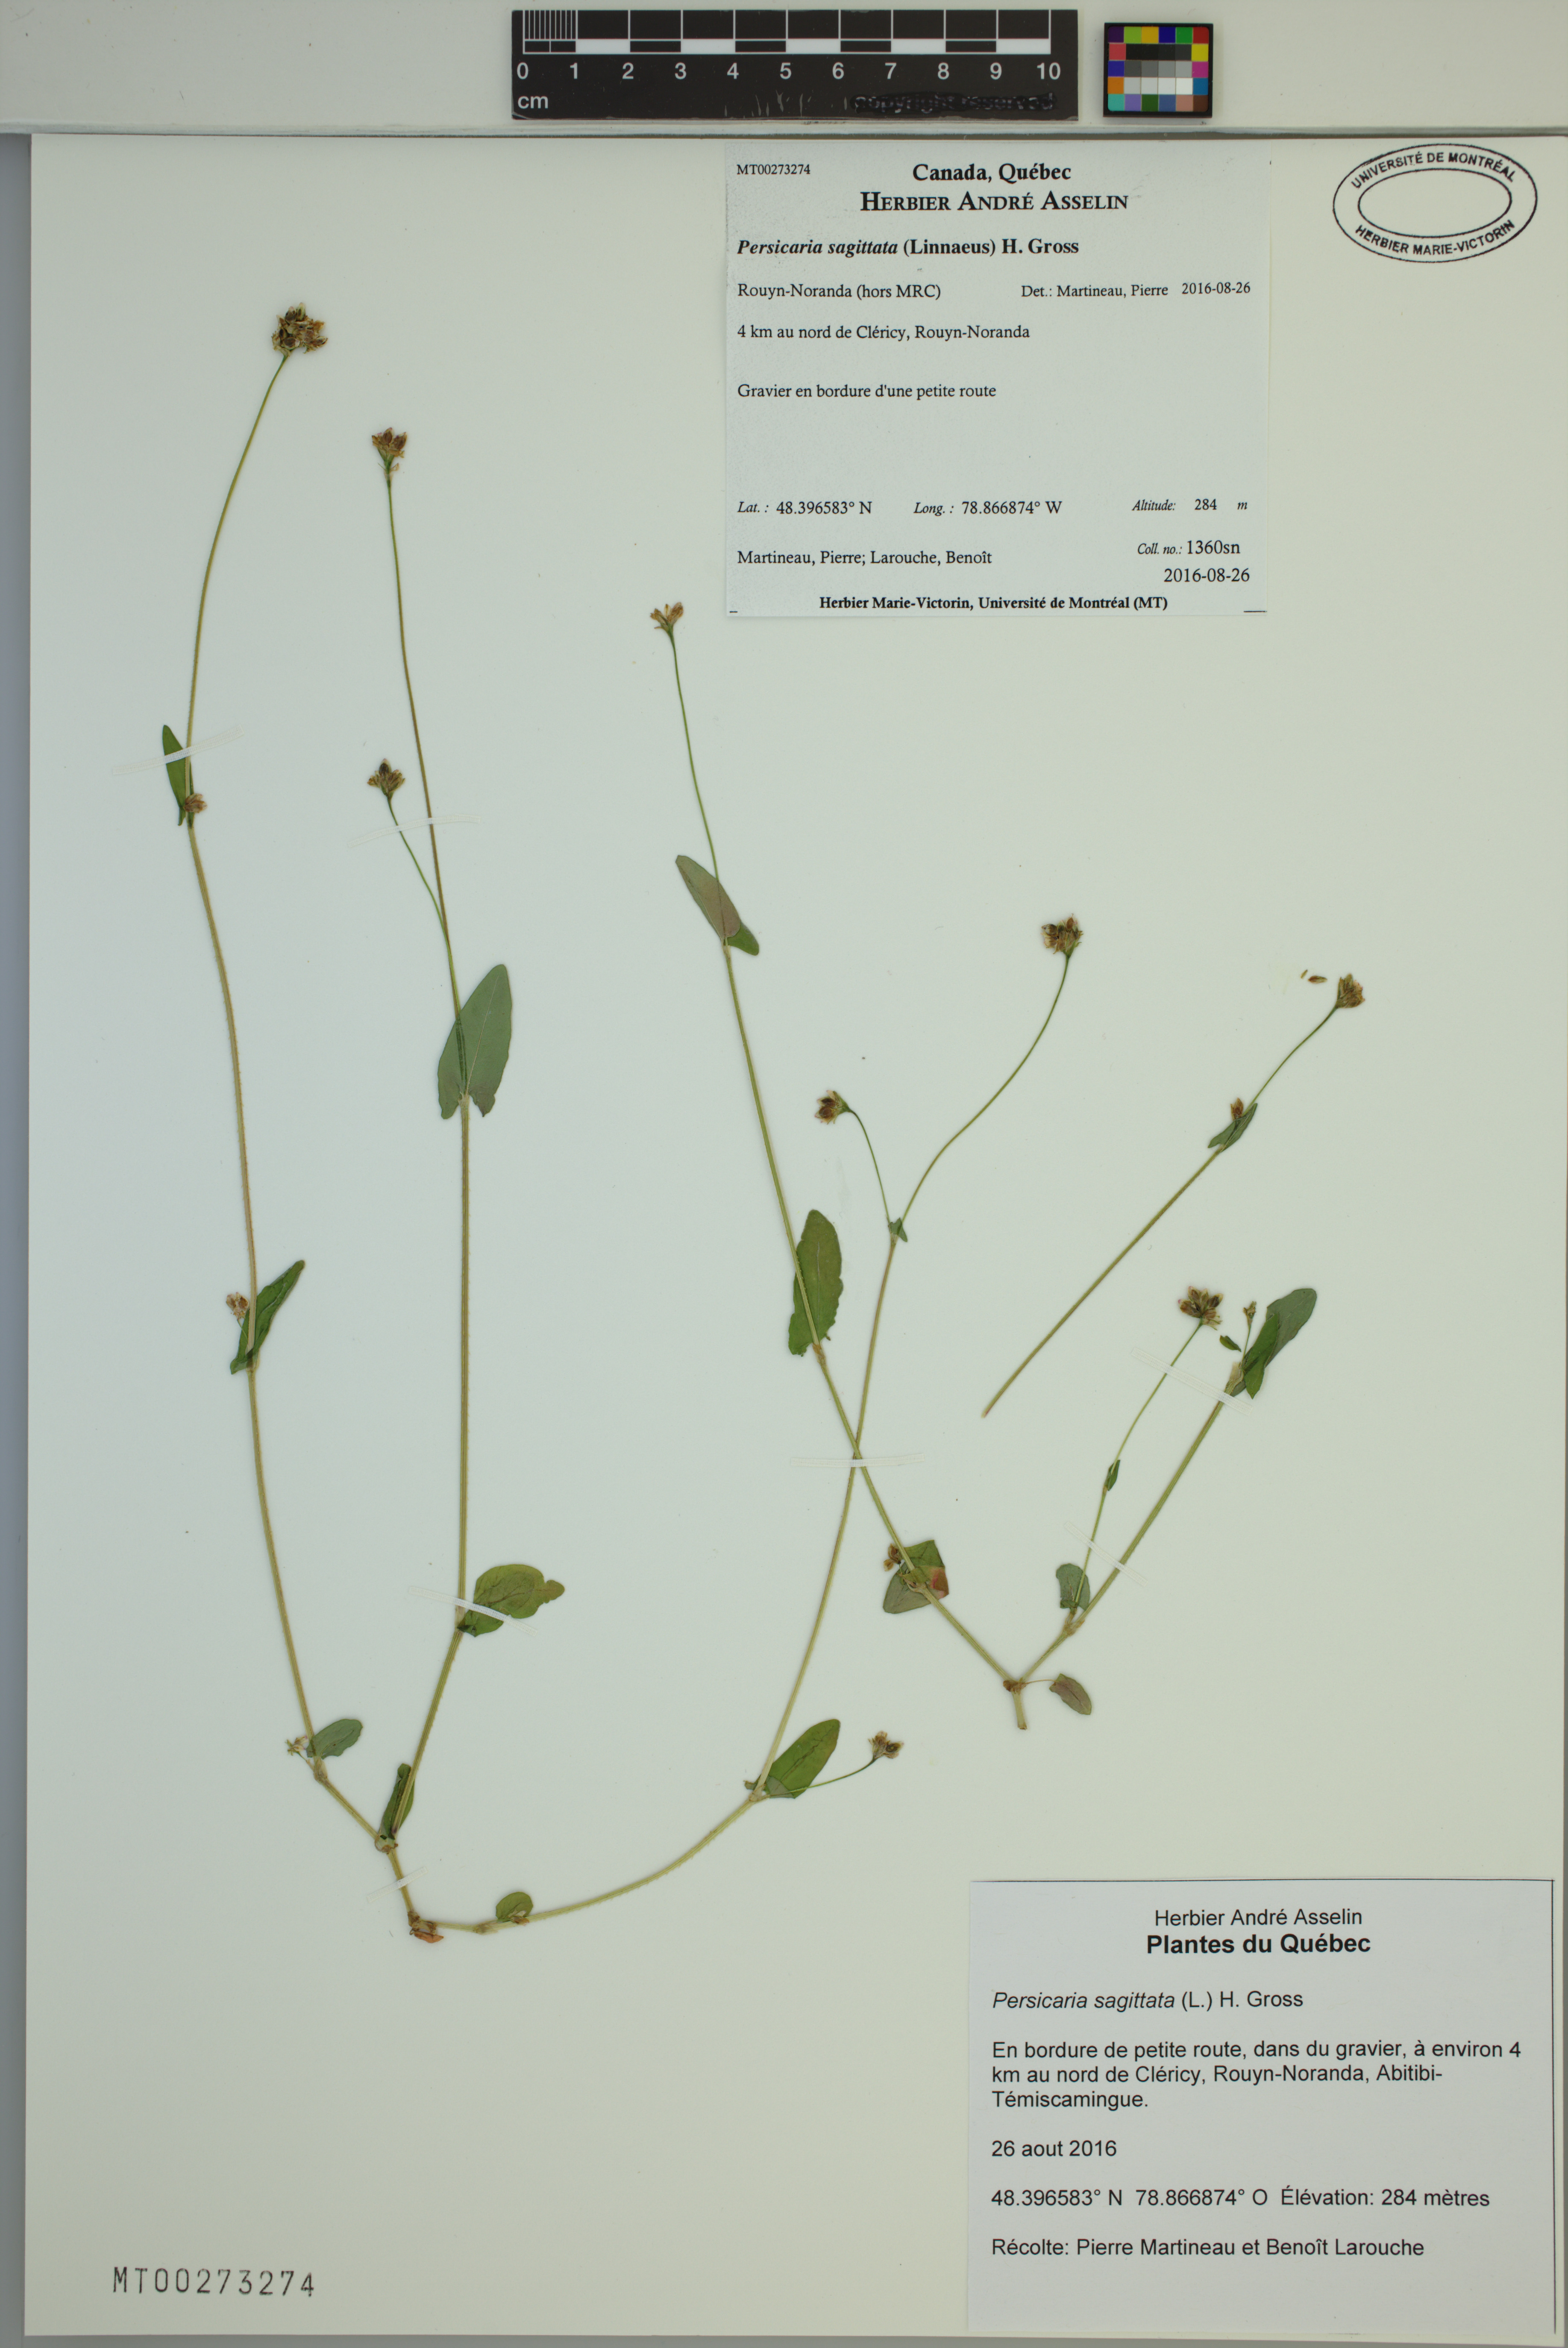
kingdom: Plantae
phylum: Tracheophyta
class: Magnoliopsida
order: Caryophyllales
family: Polygonaceae
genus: Persicaria
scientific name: Persicaria sagittata
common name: American tearthumb
